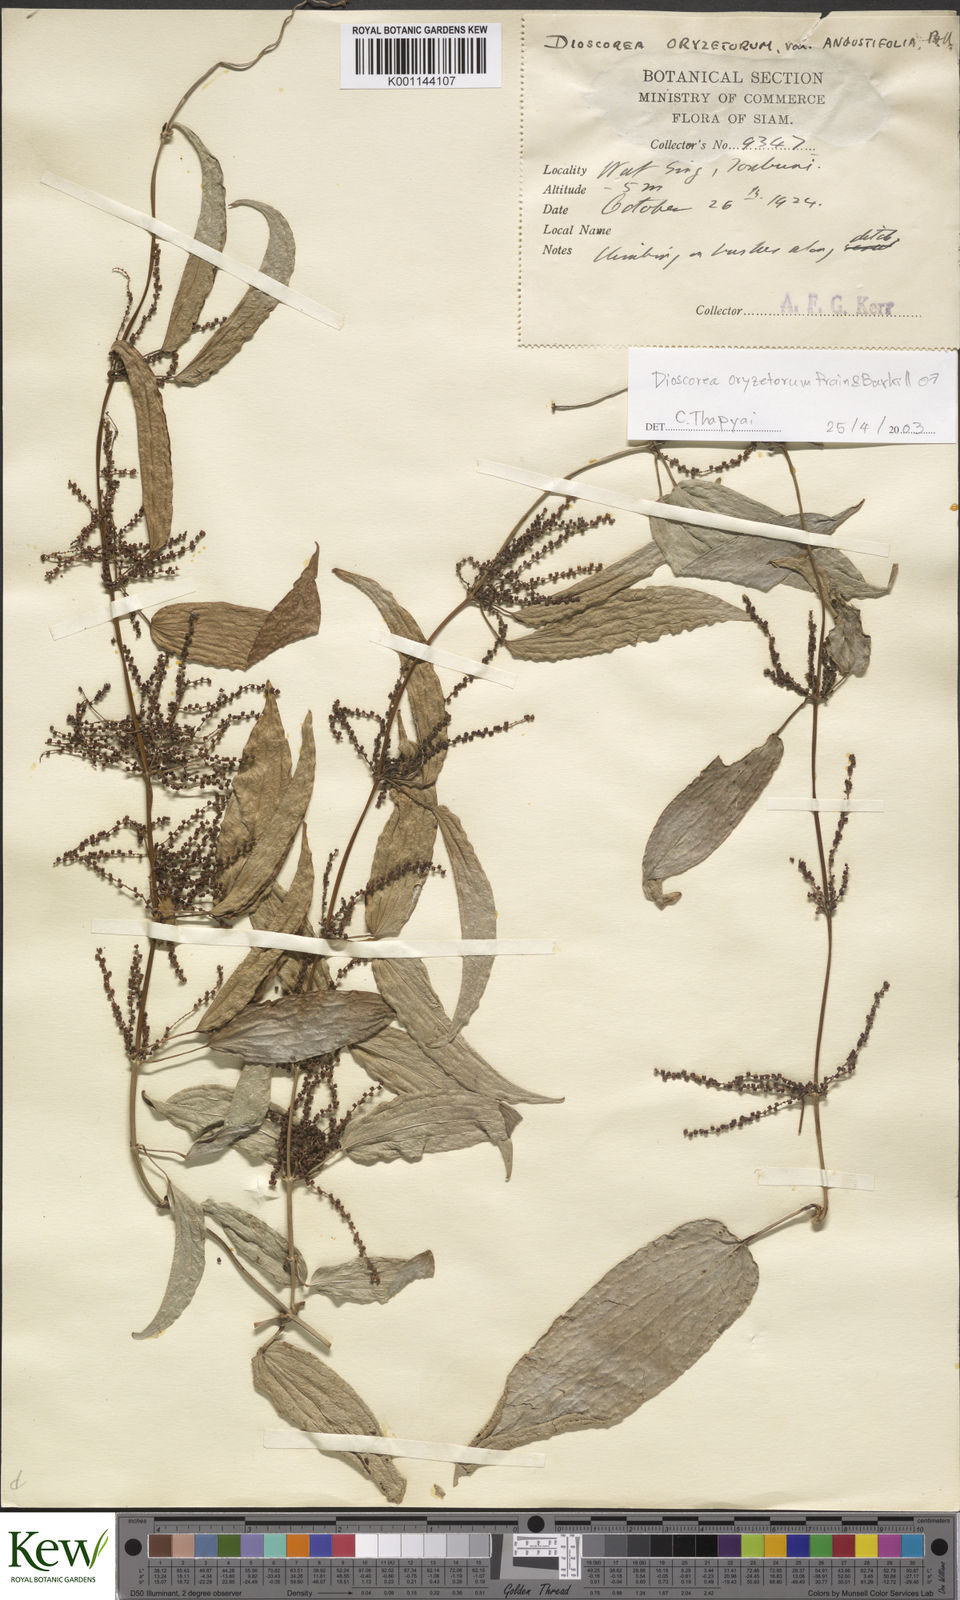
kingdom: Plantae
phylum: Tracheophyta
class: Liliopsida
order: Dioscoreales
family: Dioscoreaceae
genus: Dioscorea
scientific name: Dioscorea
